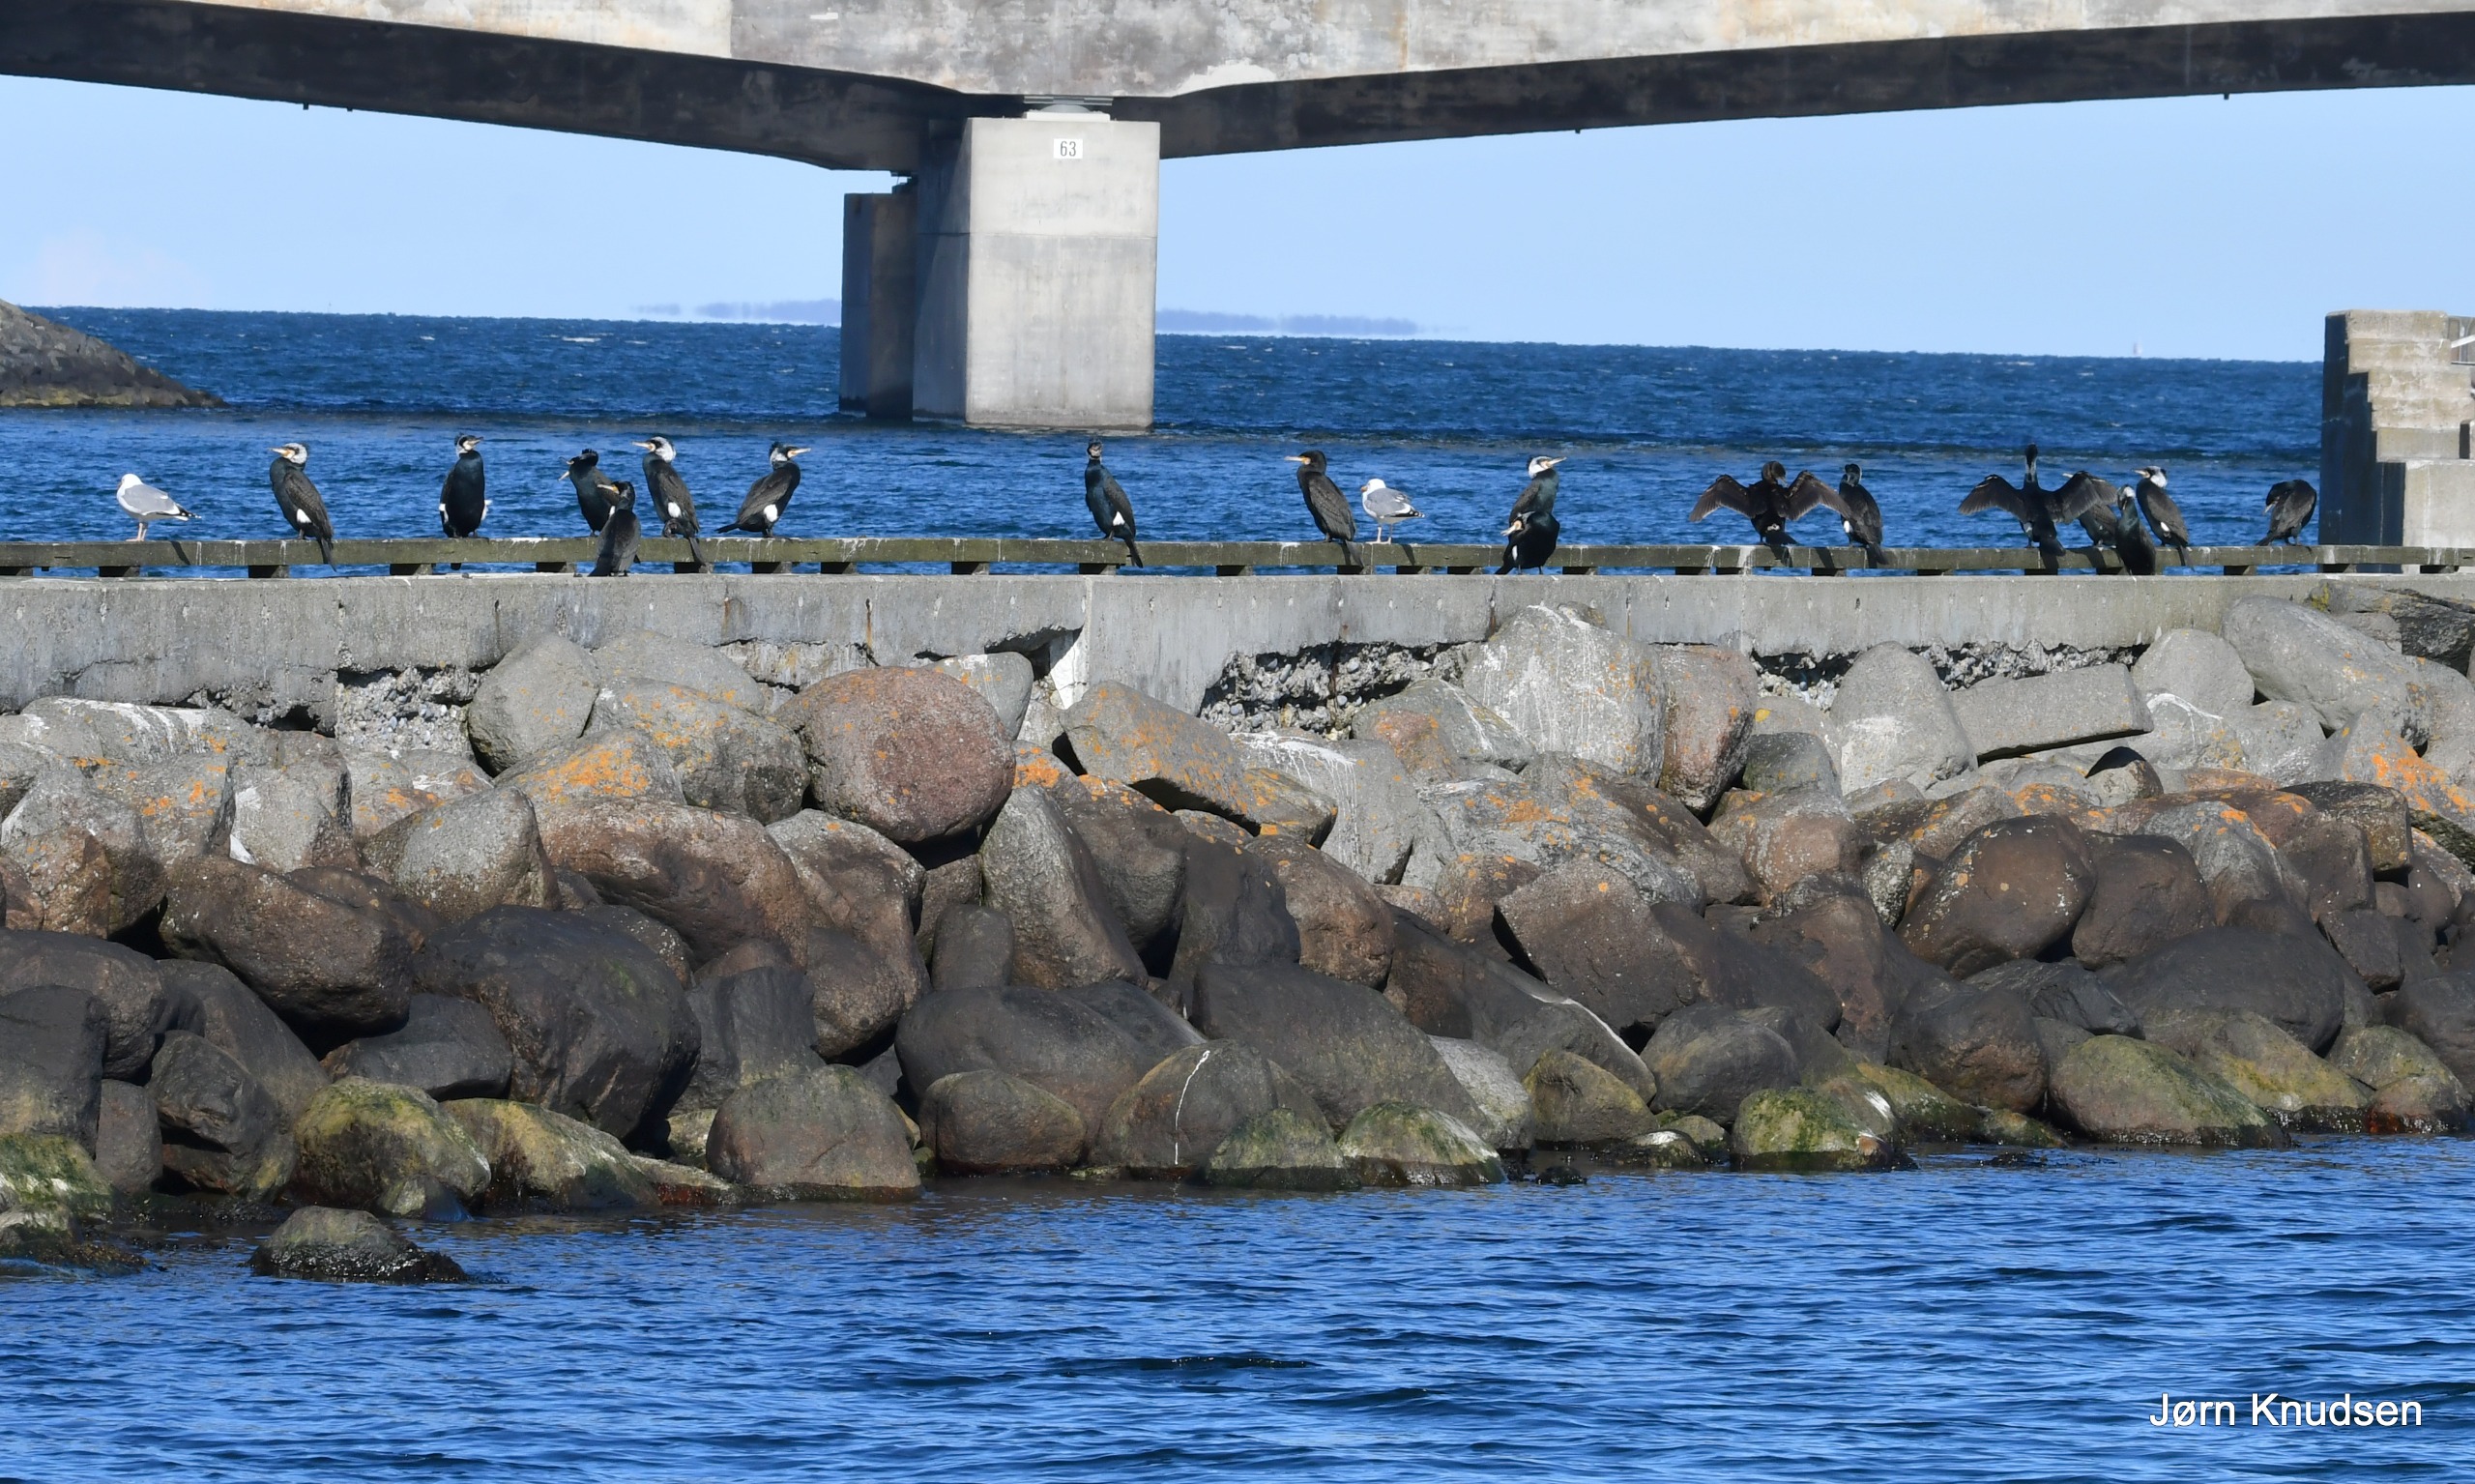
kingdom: Animalia
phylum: Chordata
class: Aves
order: Suliformes
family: Phalacrocoracidae
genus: Phalacrocorax
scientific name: Phalacrocorax carbo
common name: Mellemskarv
